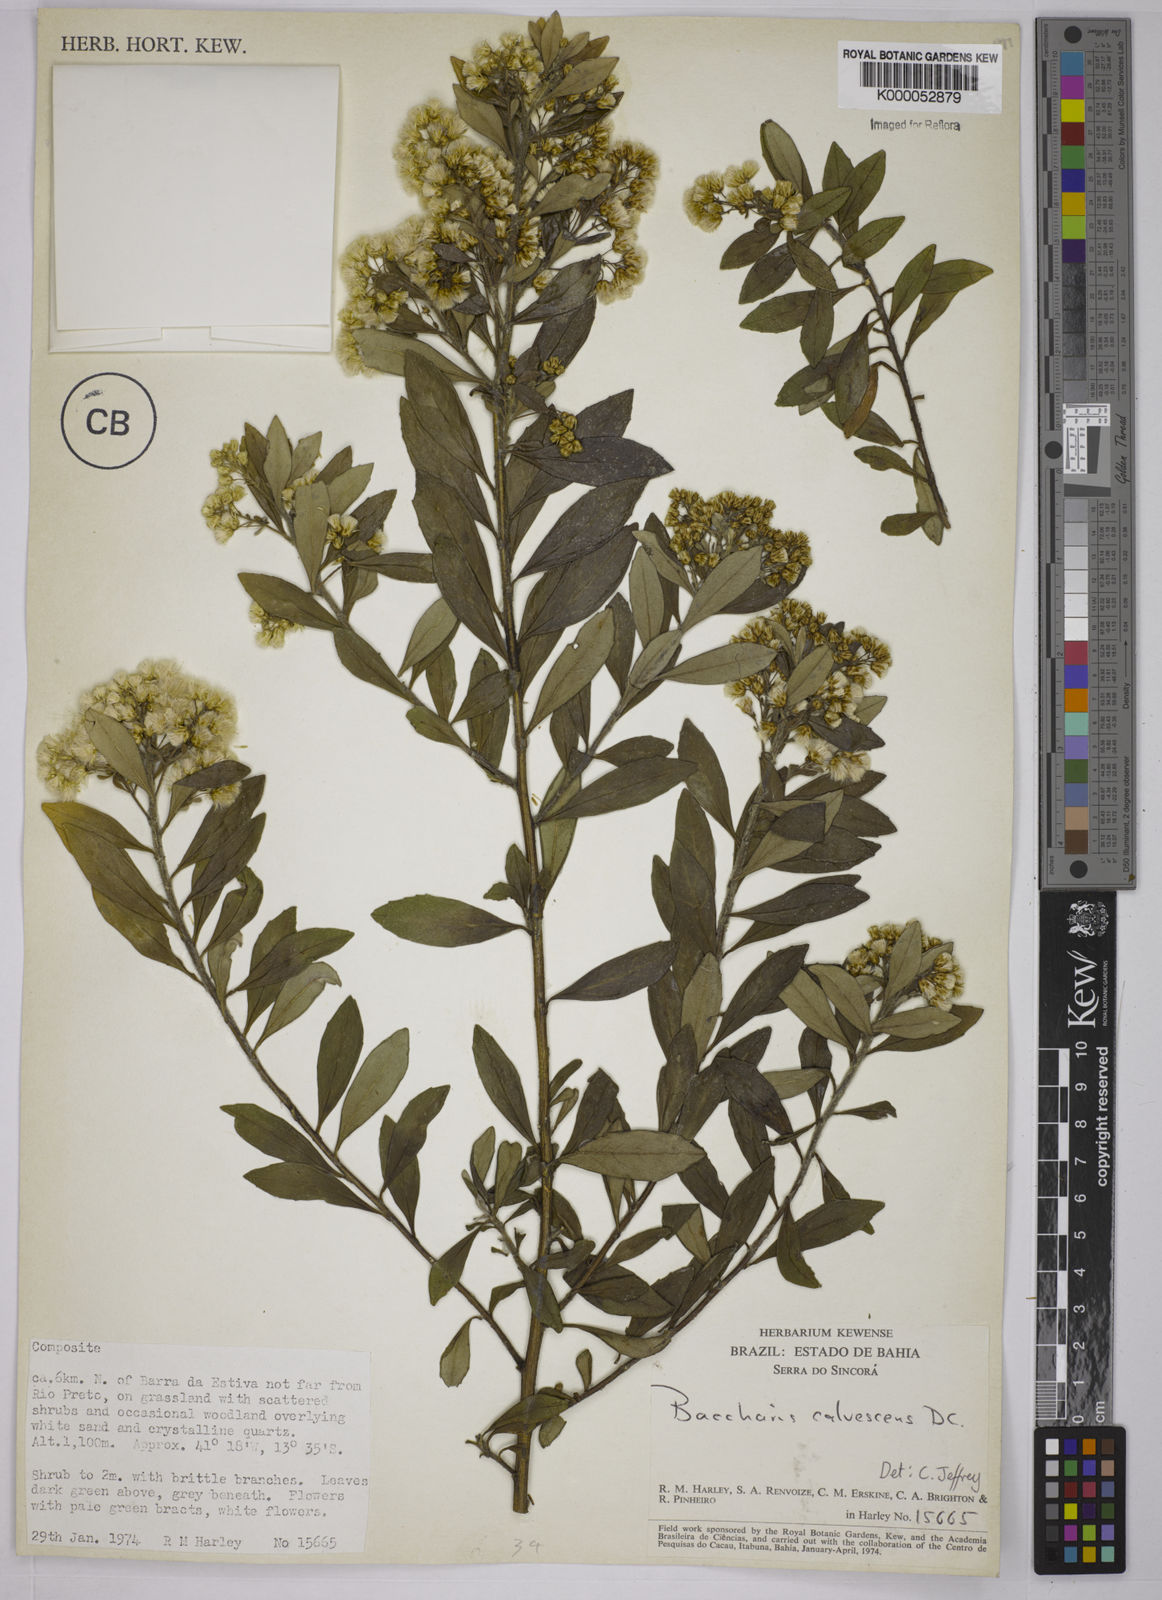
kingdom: Plantae
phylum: Tracheophyta
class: Magnoliopsida
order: Asterales
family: Asteraceae
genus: Baccharis
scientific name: Baccharis calvescens
